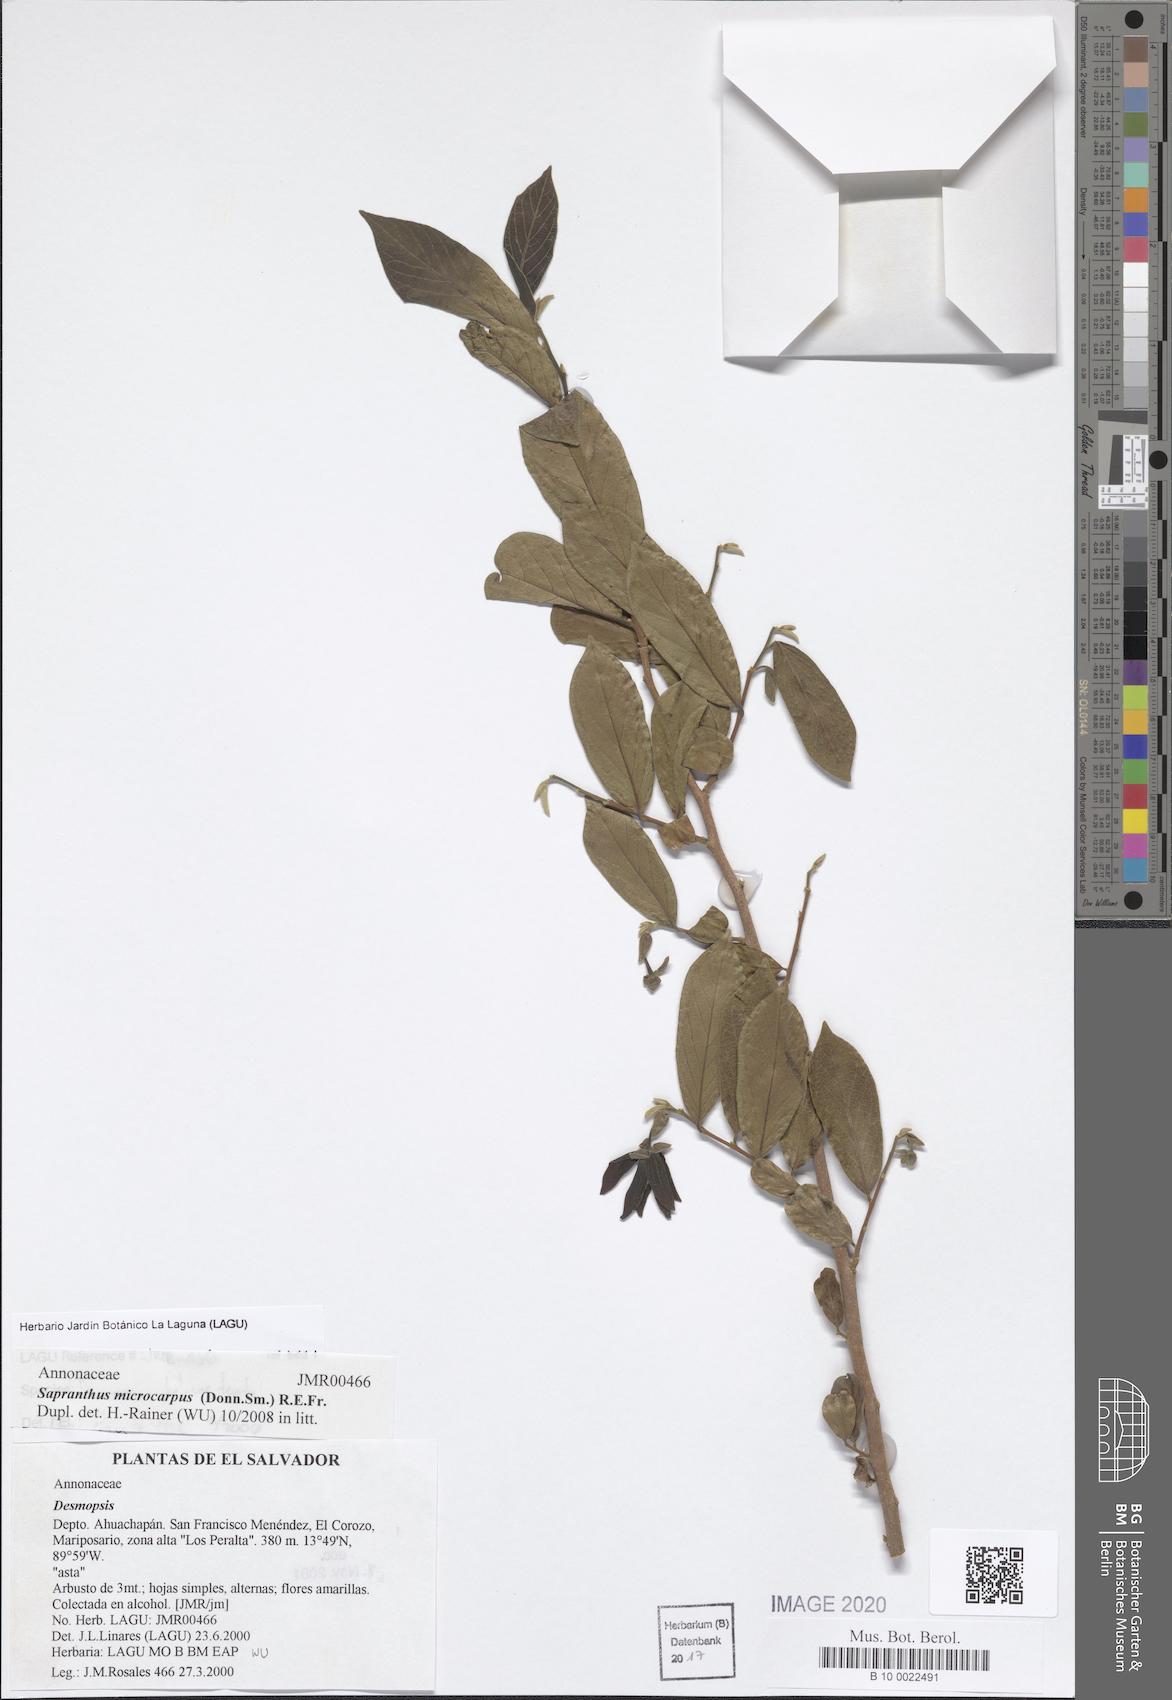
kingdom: Plantae
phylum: Tracheophyta
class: Magnoliopsida
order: Magnoliales
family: Annonaceae
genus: Sapranthus
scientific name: Sapranthus microcarpus
